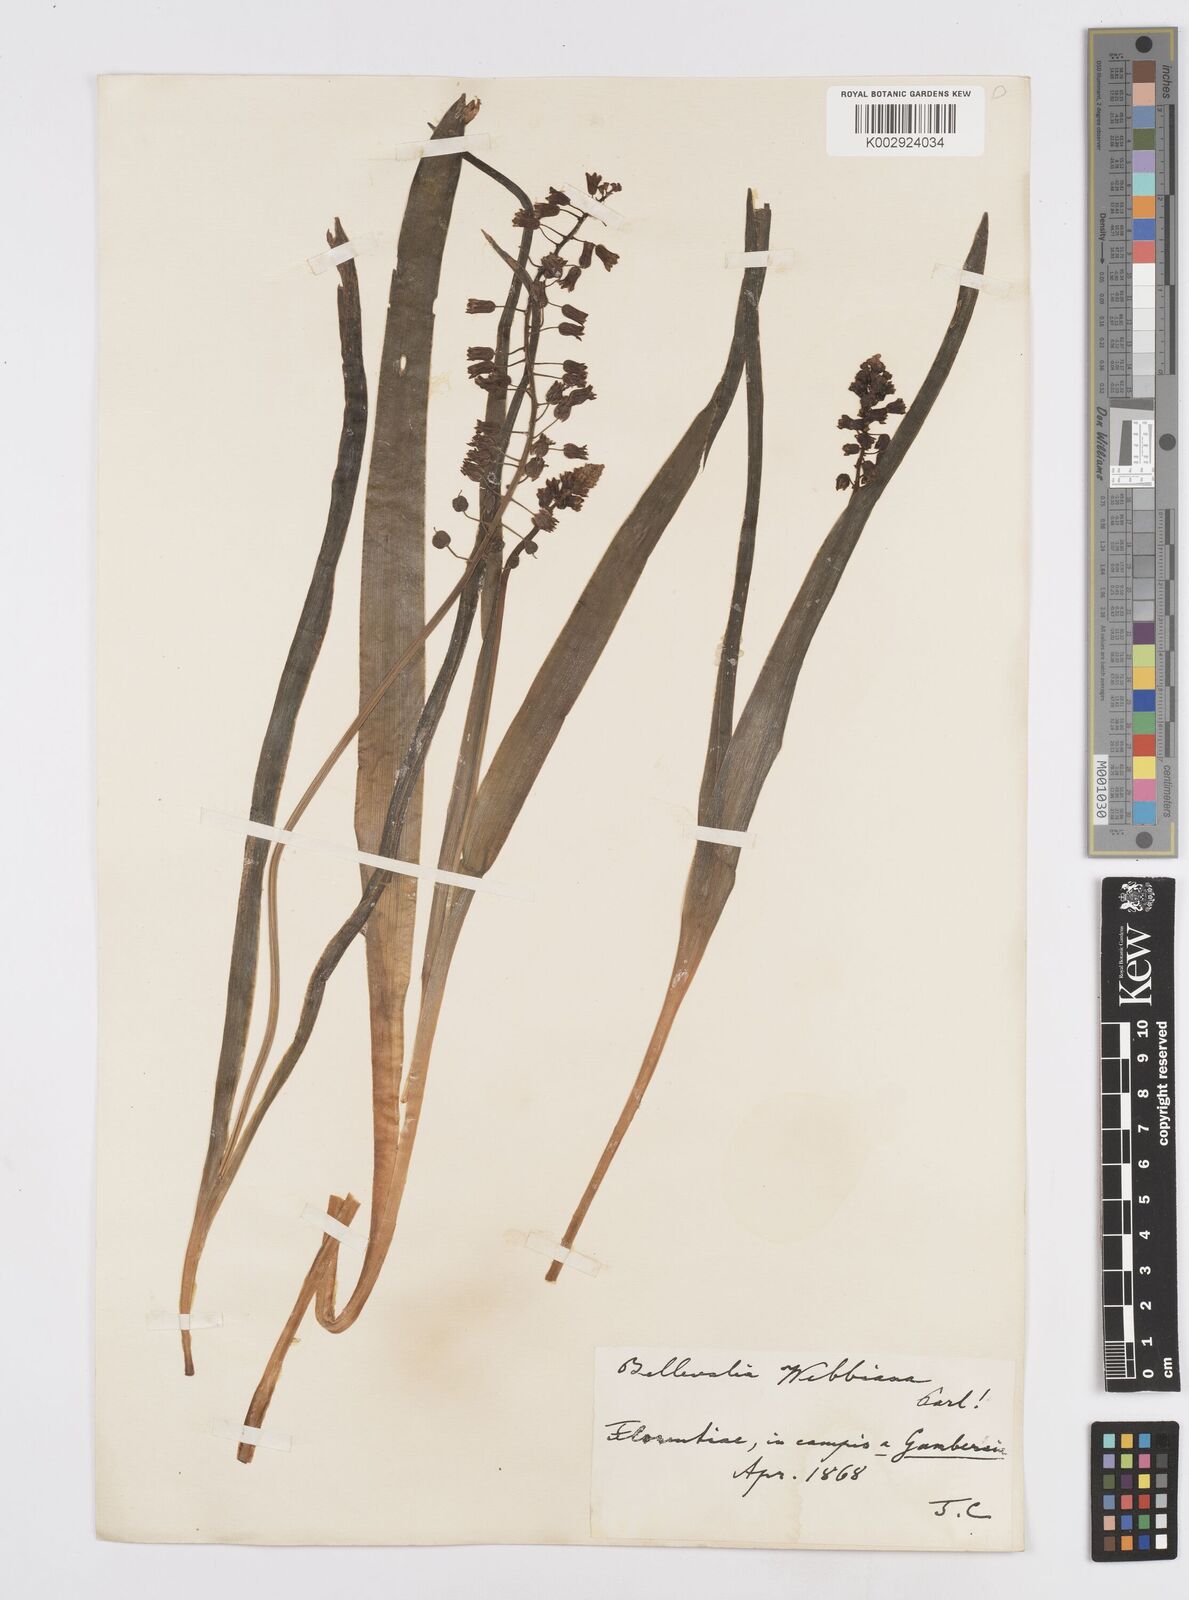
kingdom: Plantae
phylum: Tracheophyta
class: Liliopsida
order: Asparagales
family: Asparagaceae
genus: Bellevalia
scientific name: Bellevalia dubia
